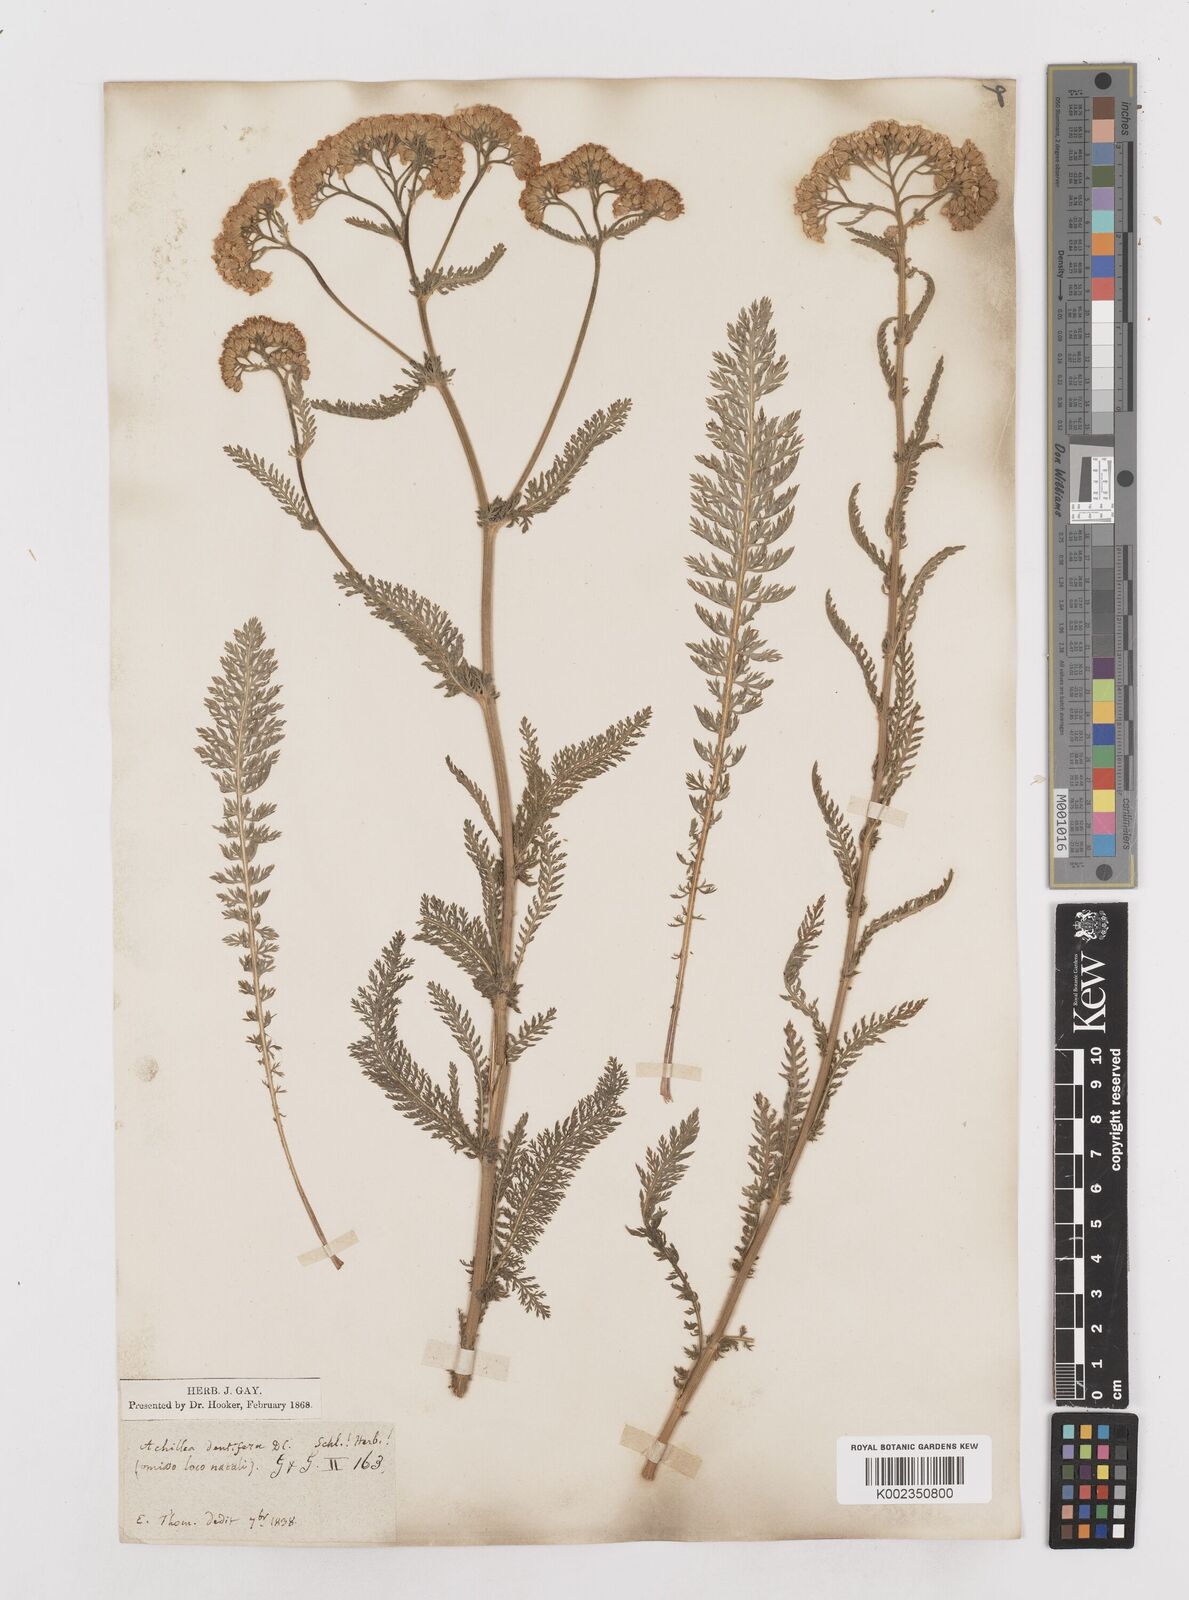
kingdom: Plantae
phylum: Tracheophyta
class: Magnoliopsida
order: Asterales
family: Asteraceae
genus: Achillea
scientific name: Achillea distans
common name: Tall yarrow
